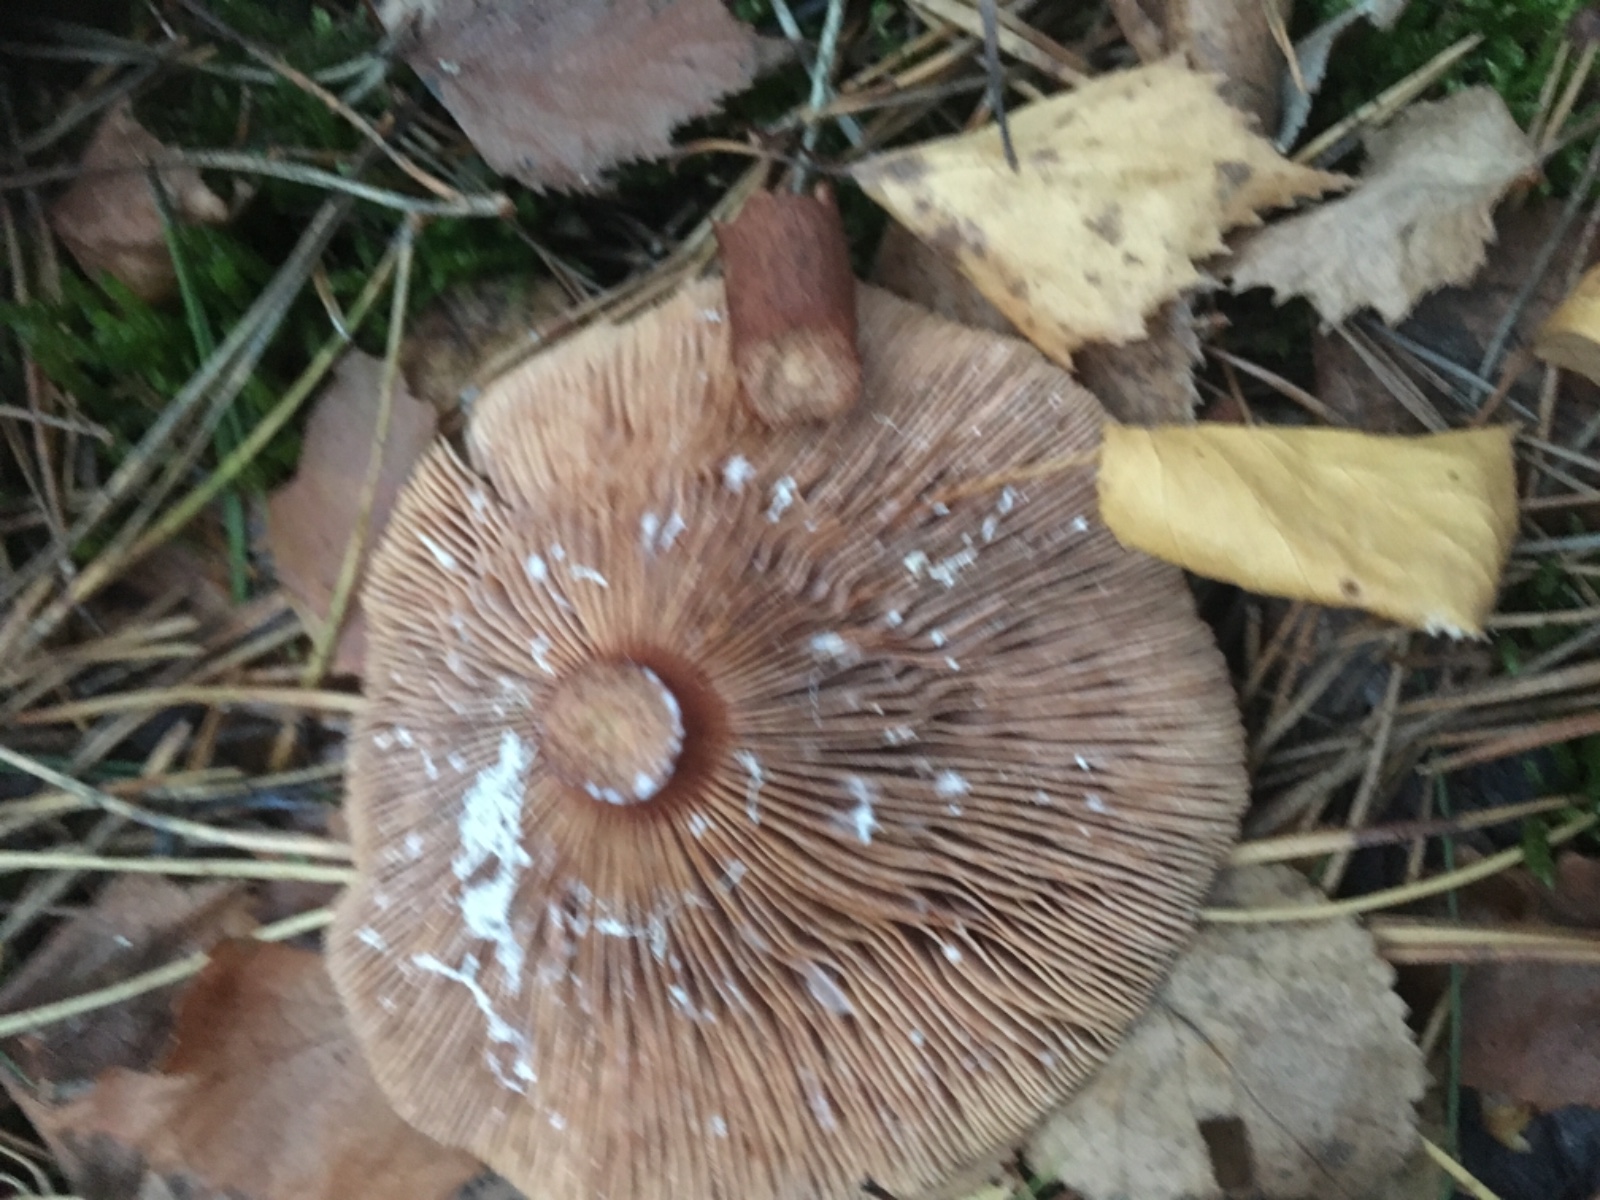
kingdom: Fungi
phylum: Basidiomycota
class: Agaricomycetes
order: Russulales
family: Russulaceae
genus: Lactarius
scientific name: Lactarius hepaticus
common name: leverbrun mælkehat
